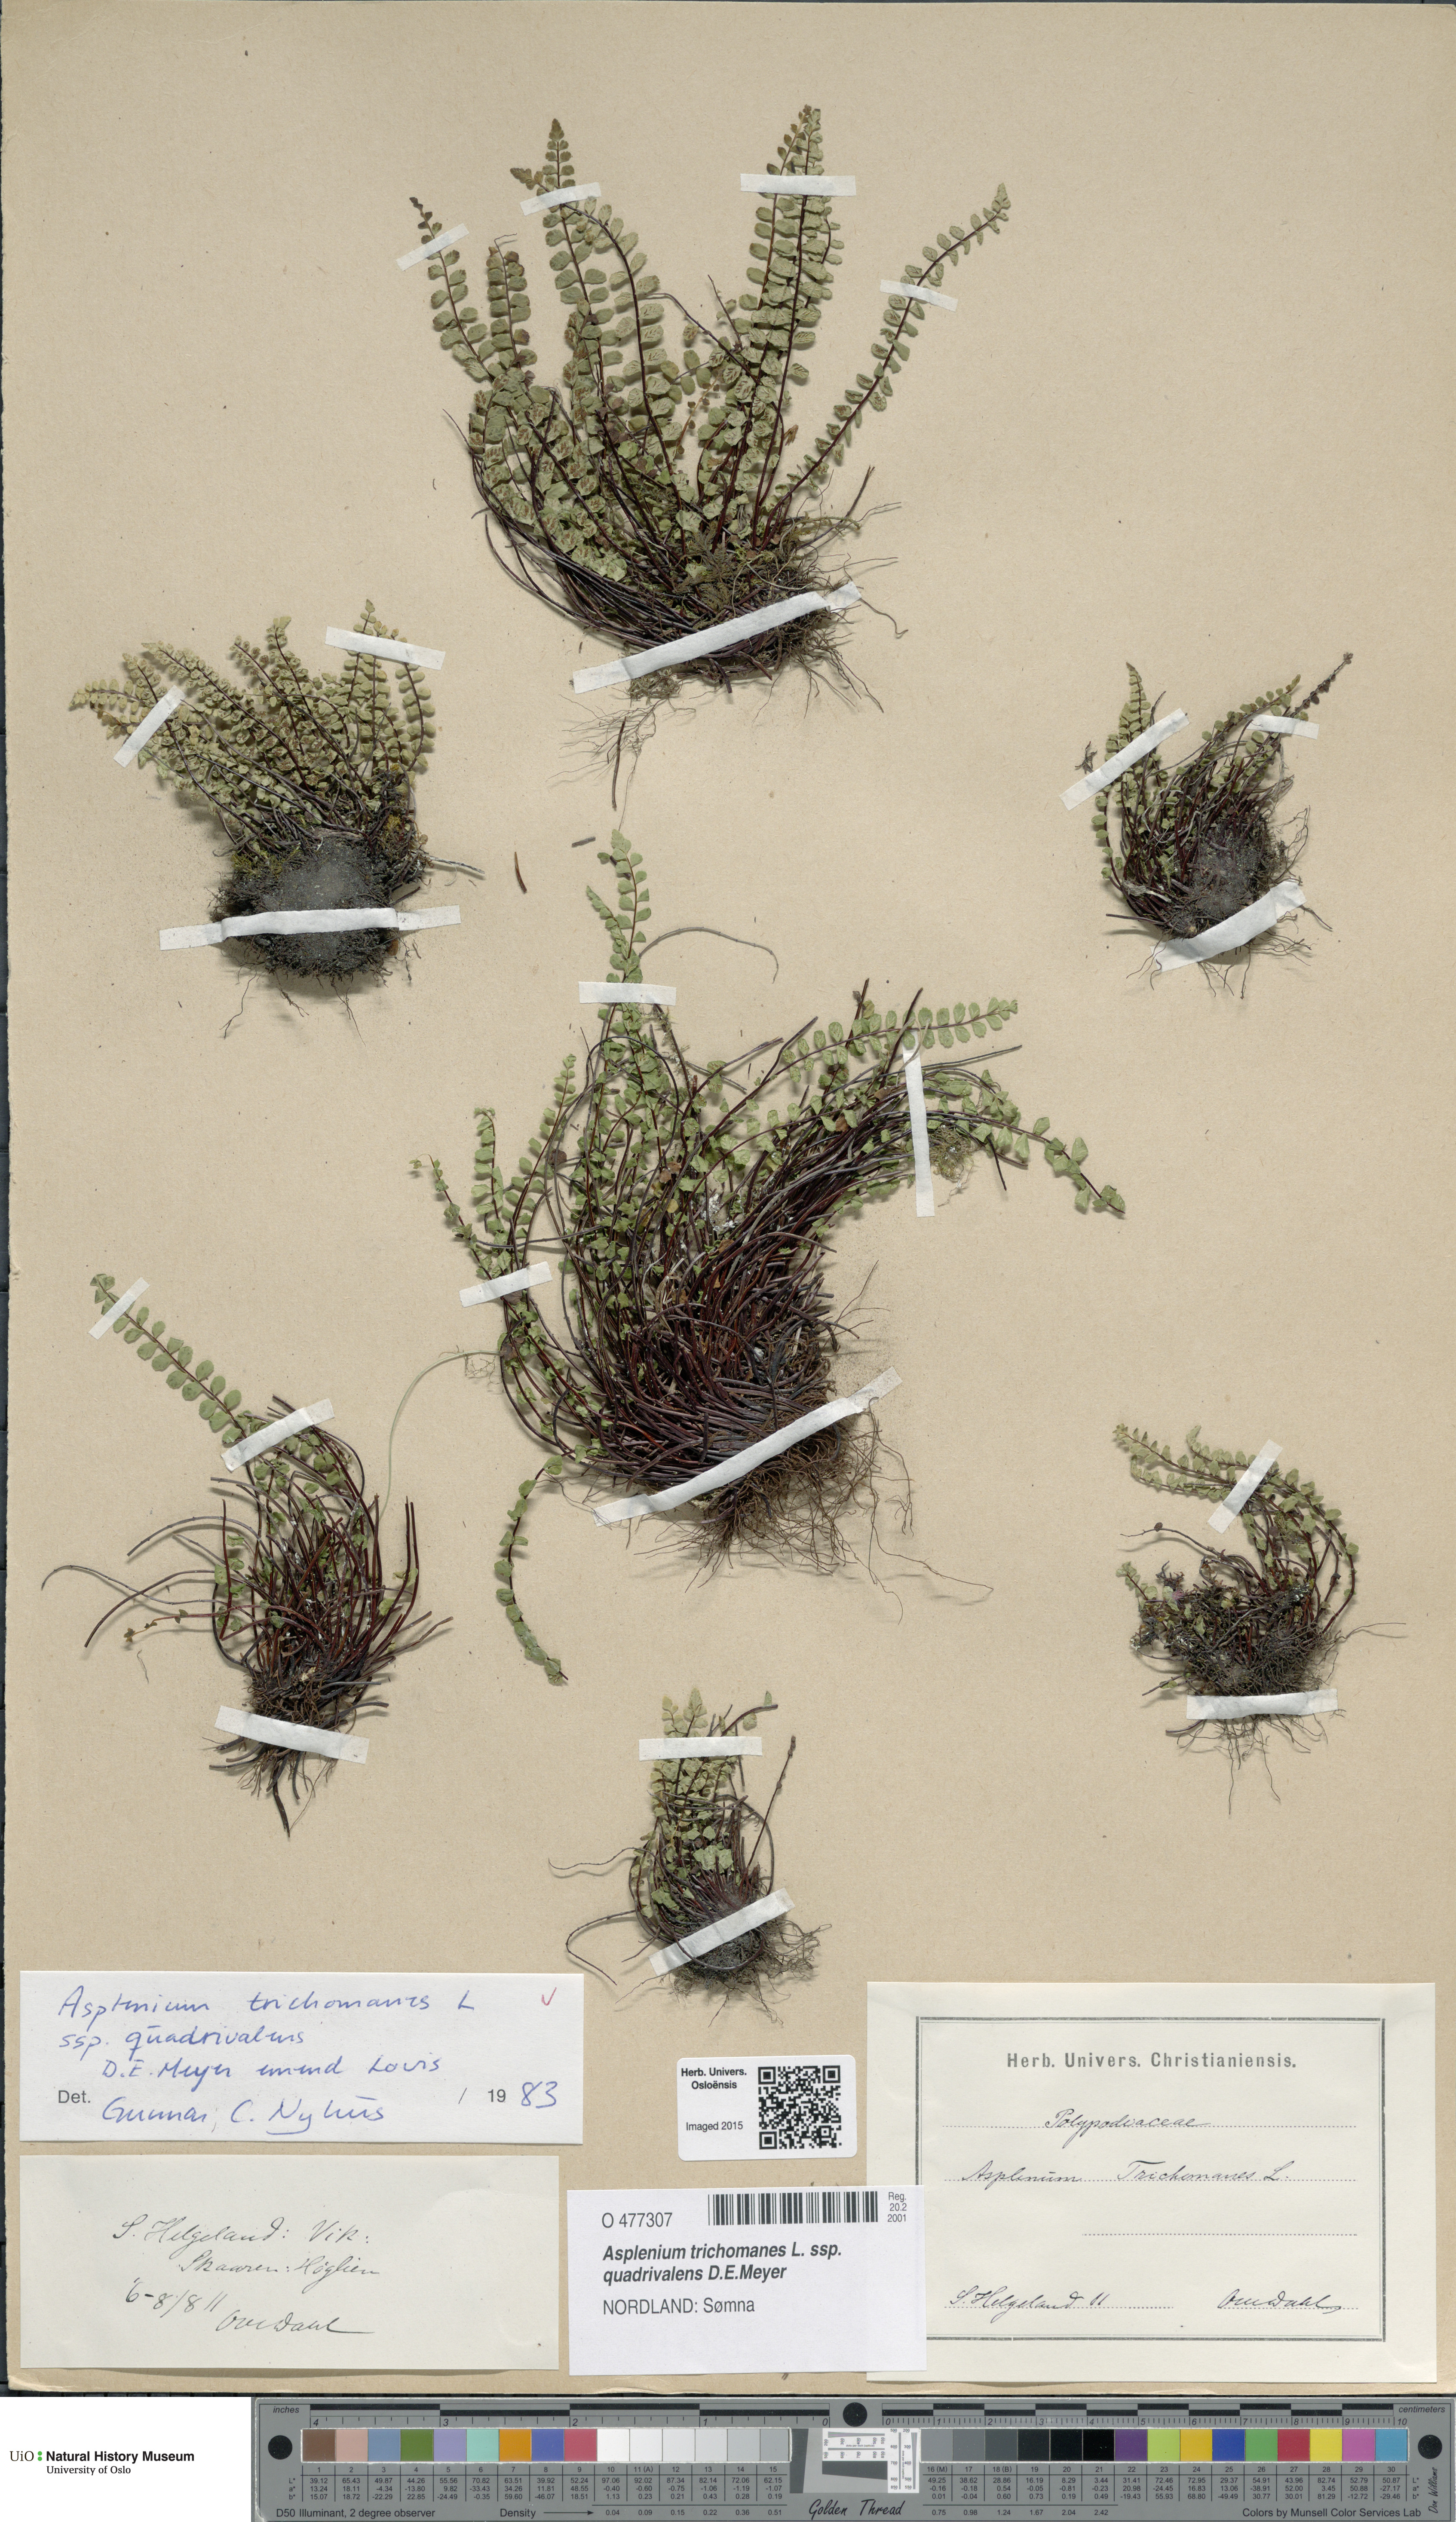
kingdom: Plantae
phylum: Tracheophyta
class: Polypodiopsida
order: Polypodiales
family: Aspleniaceae
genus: Asplenium
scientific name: Asplenium quadrivalens
